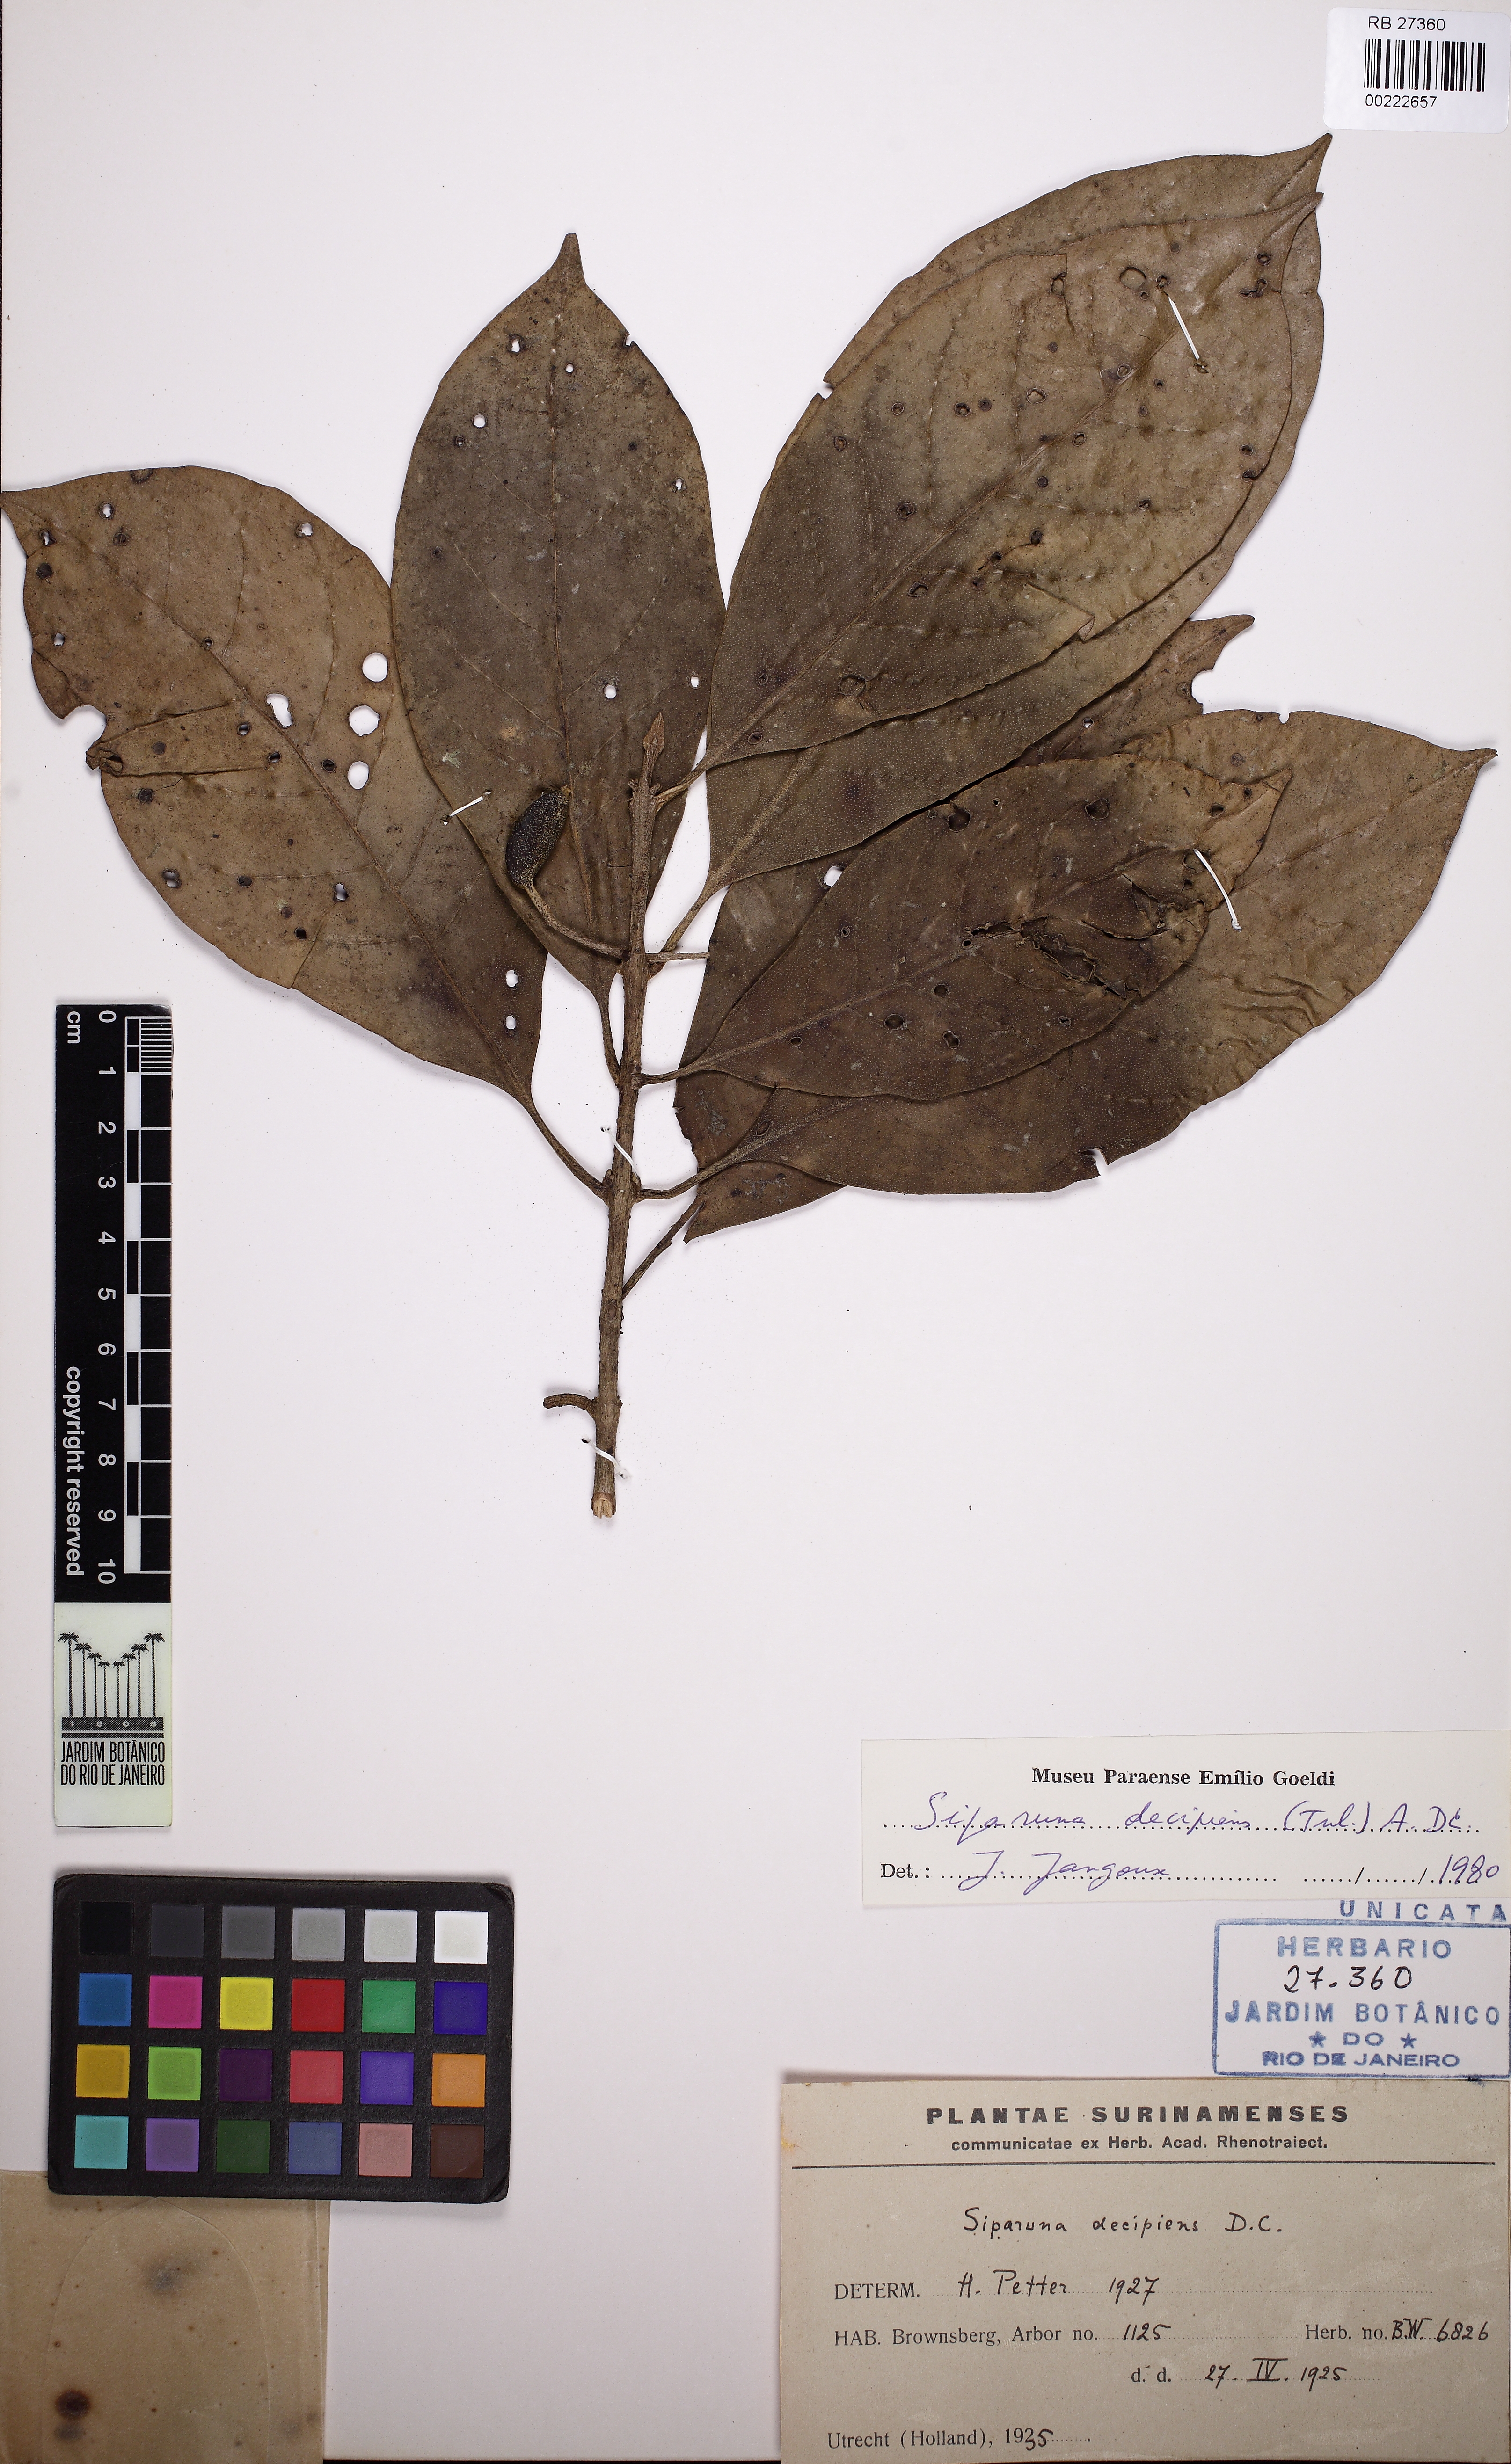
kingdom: Plantae
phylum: Tracheophyta
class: Magnoliopsida
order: Laurales
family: Siparunaceae
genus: Siparuna
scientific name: Siparuna decipiens
